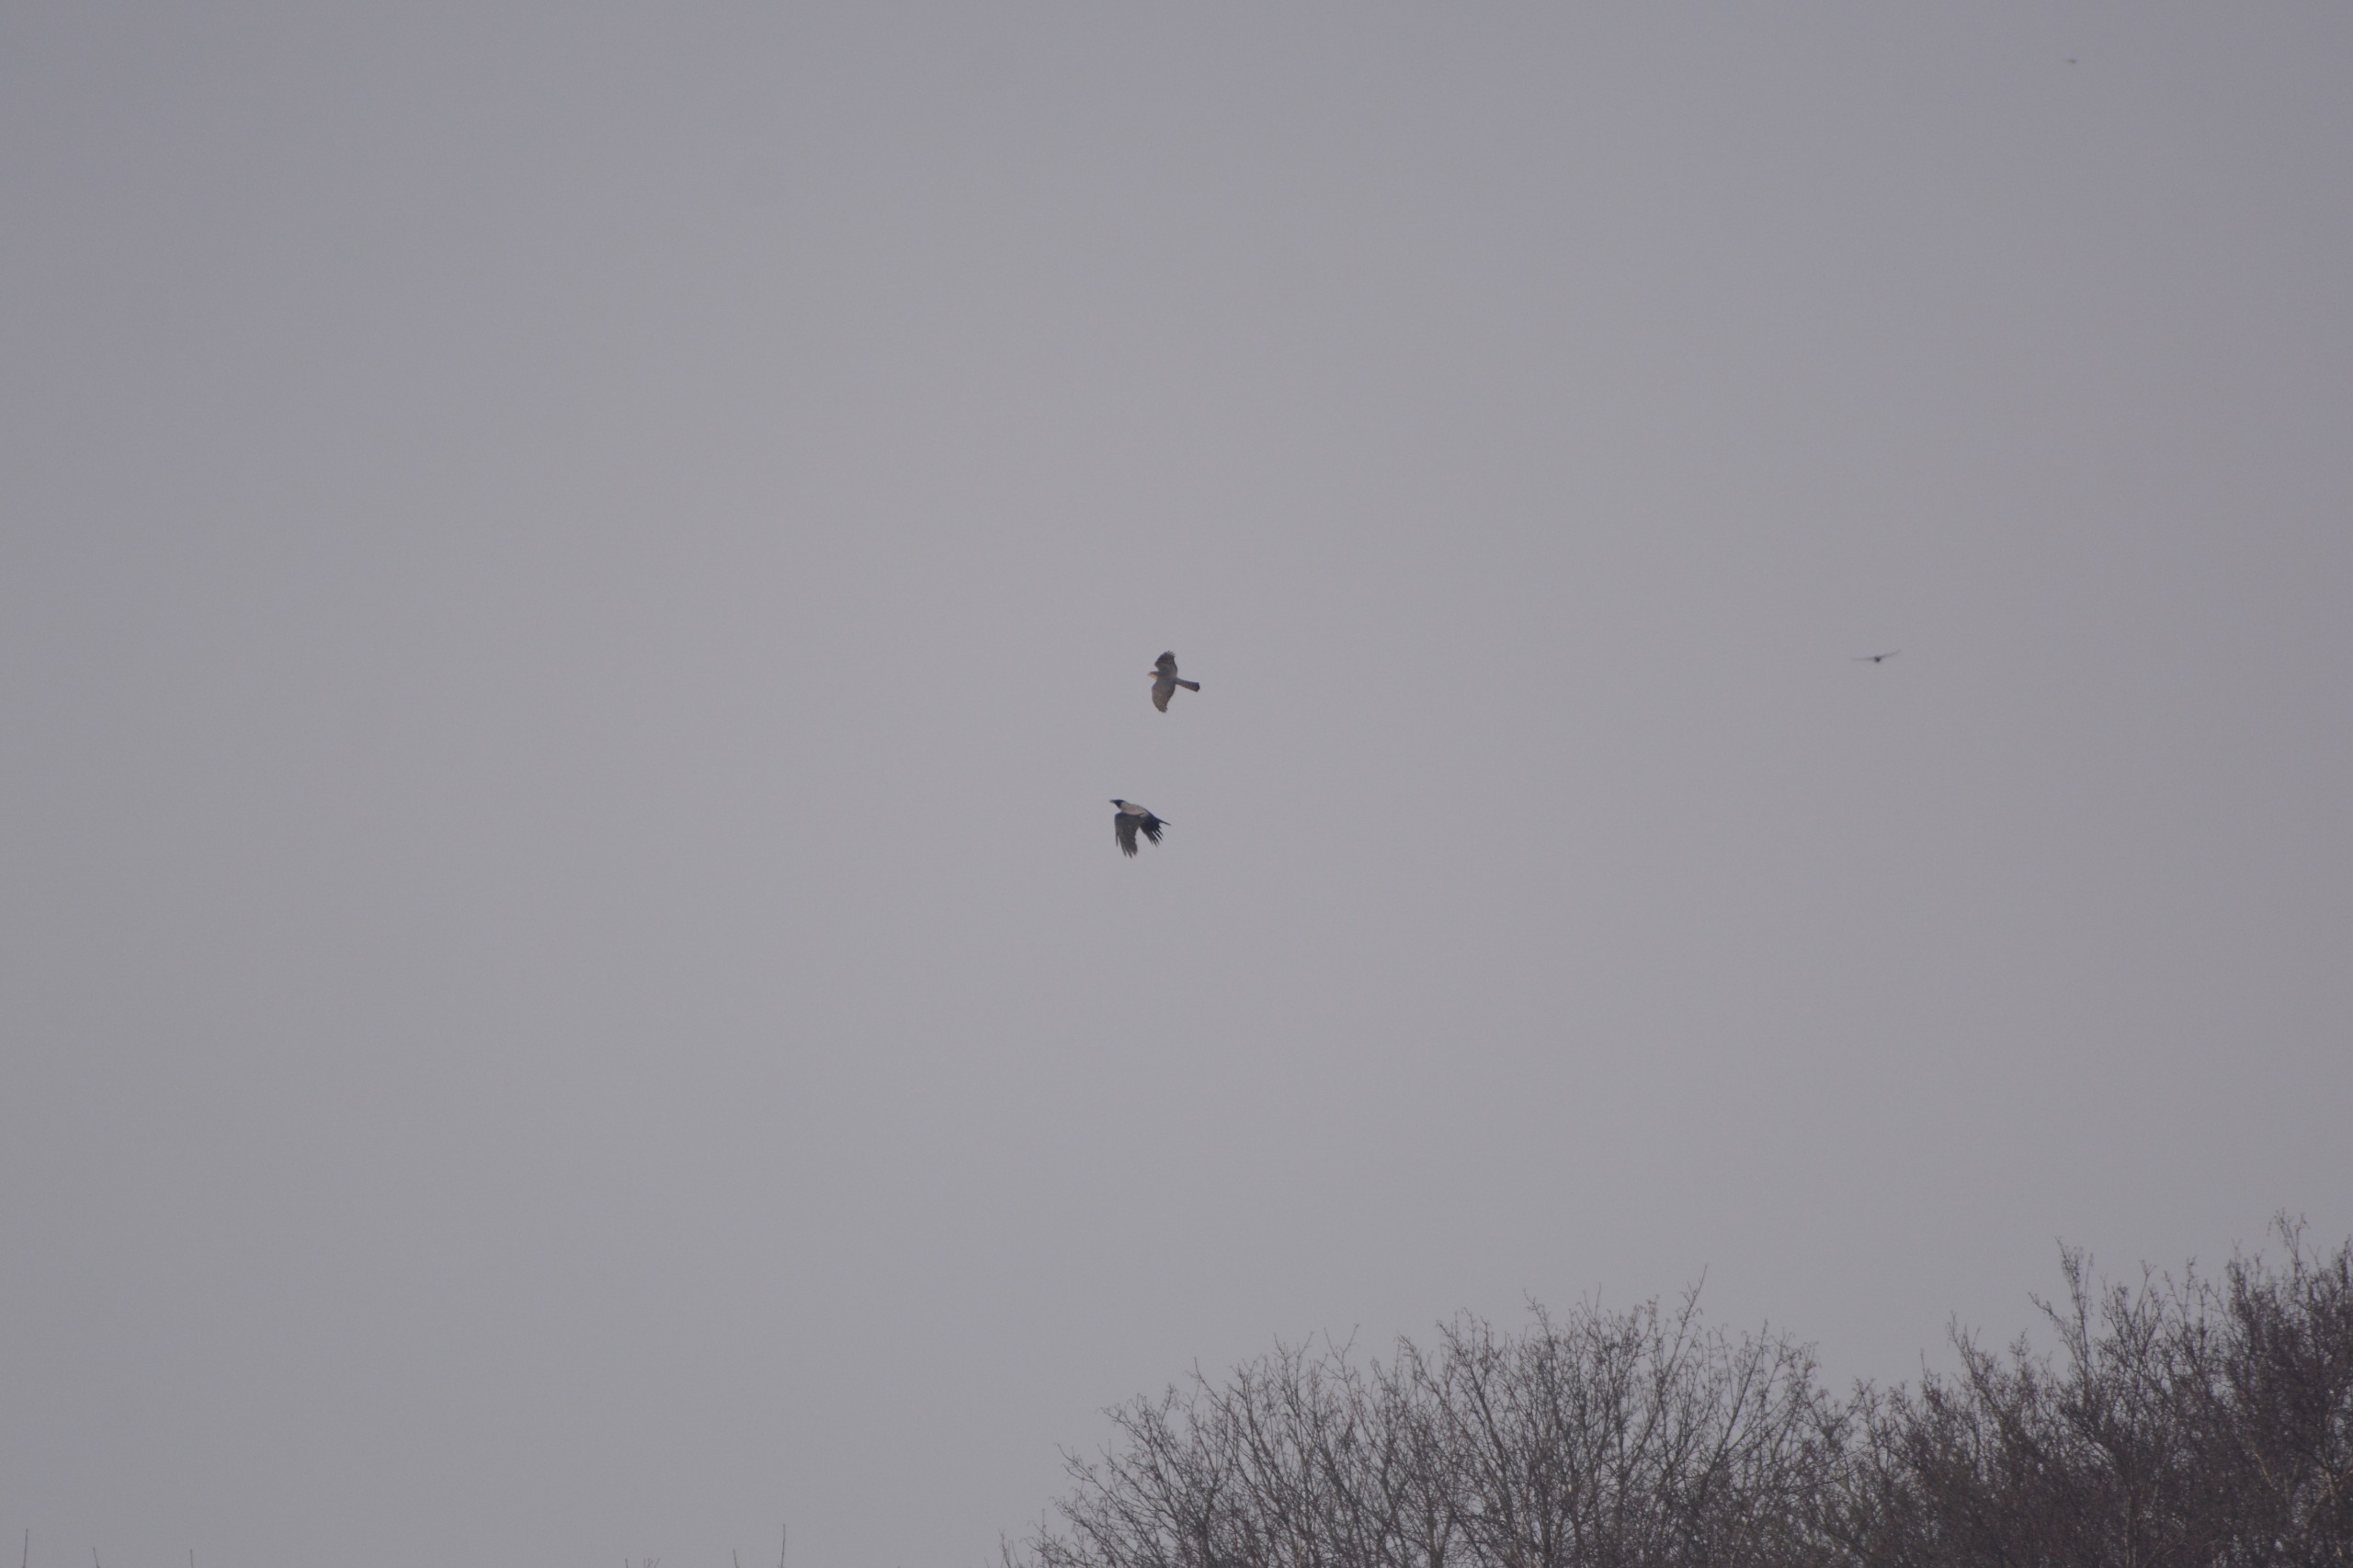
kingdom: Animalia
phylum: Chordata
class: Aves
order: Accipitriformes
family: Accipitridae
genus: Accipiter
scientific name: Accipiter nisus
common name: Spurvehøg
